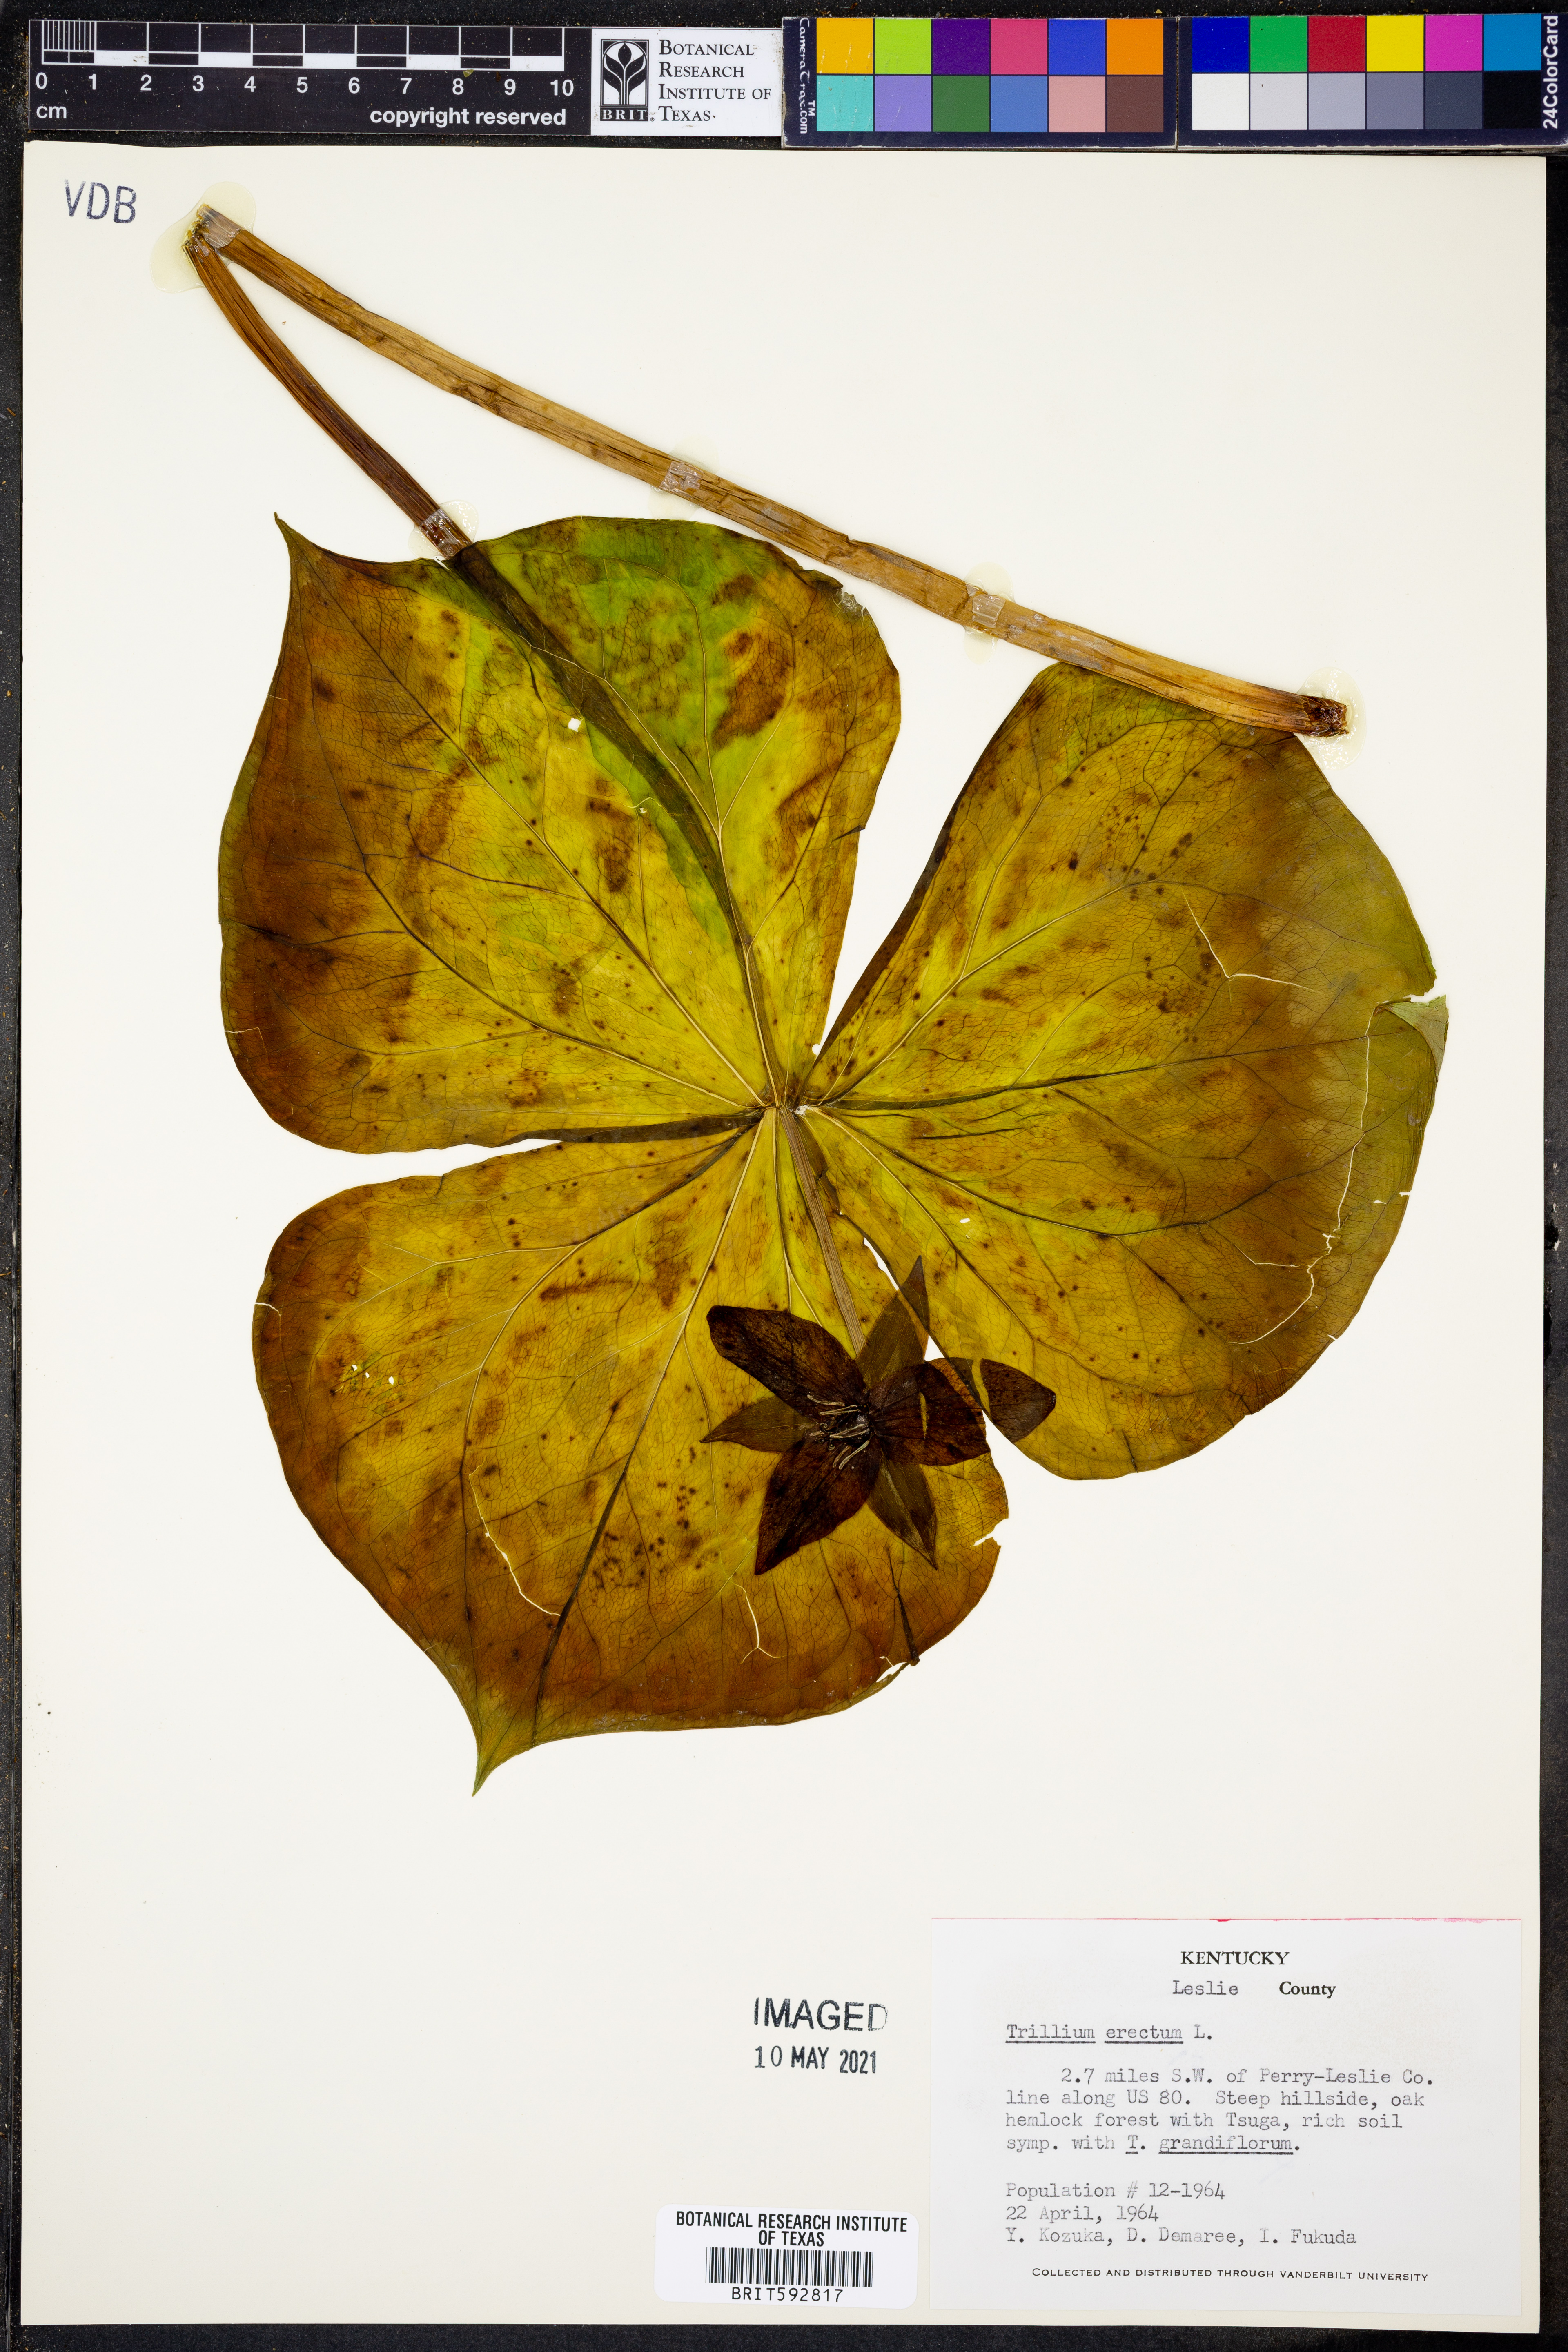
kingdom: Plantae
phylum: Tracheophyta
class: Liliopsida
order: Liliales
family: Melanthiaceae
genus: Trillium
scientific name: Trillium erectum
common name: Purple trillium
